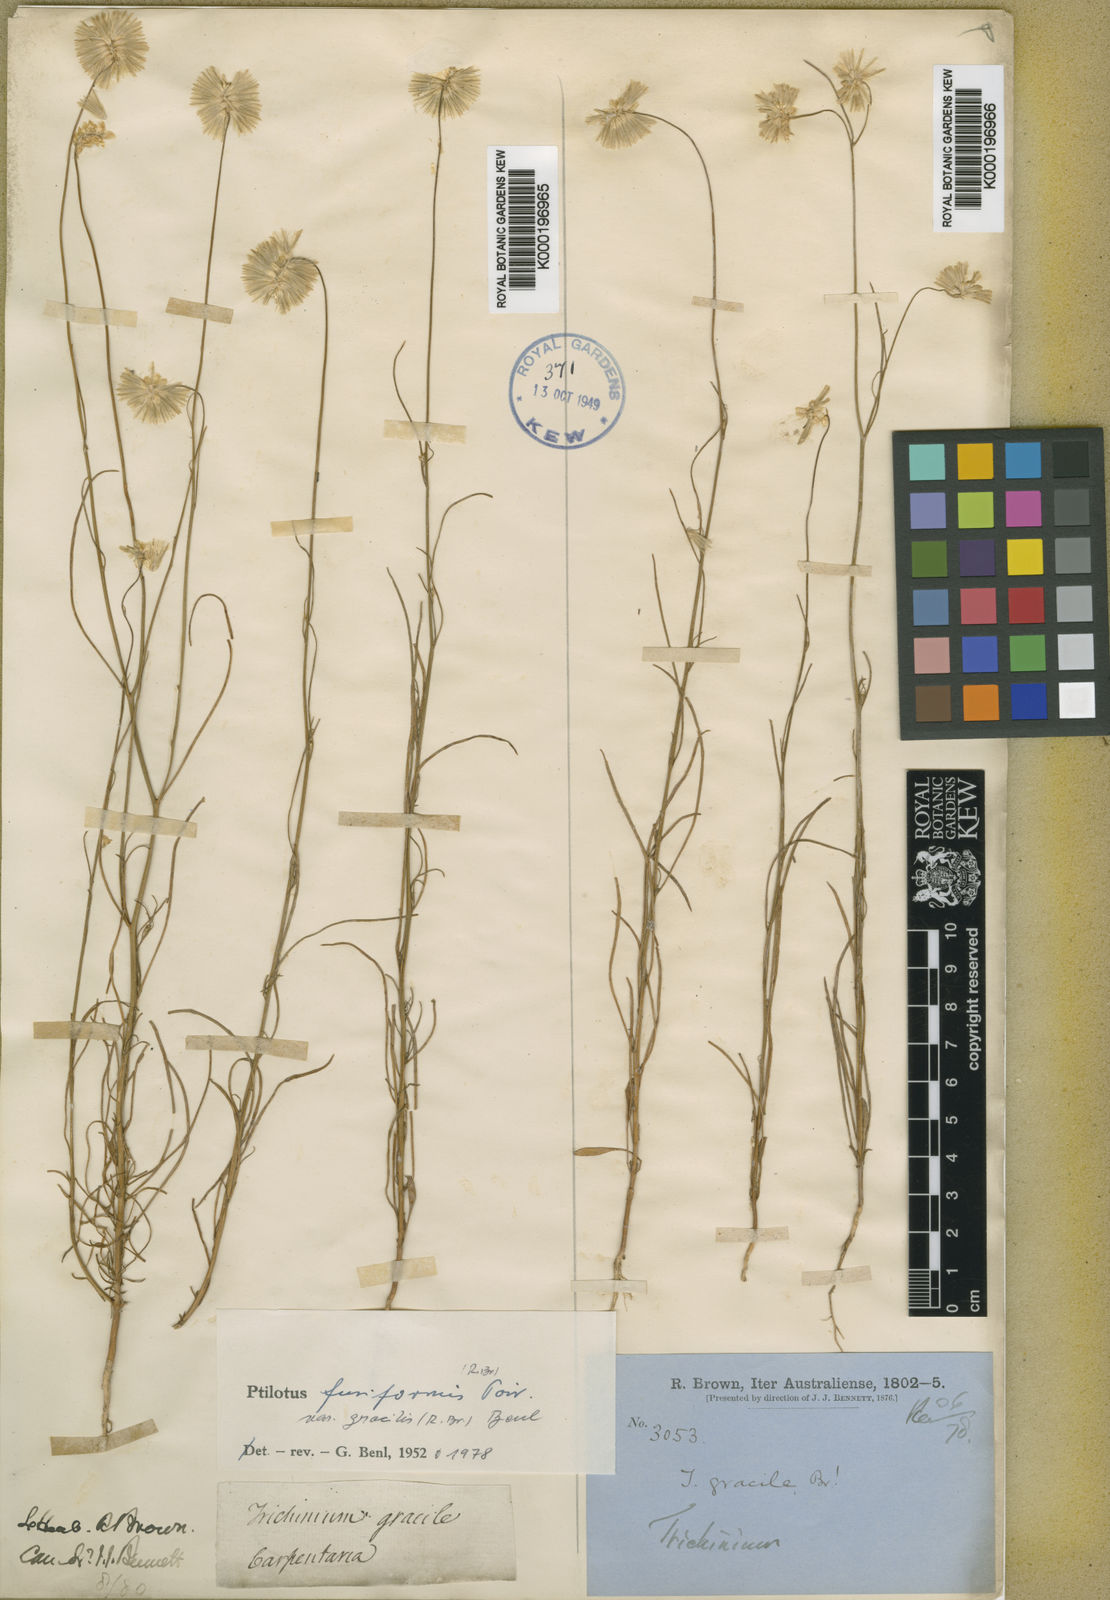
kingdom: Plantae
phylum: Tracheophyta
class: Magnoliopsida
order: Caryophyllales
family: Amaranthaceae
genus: Ptilotus
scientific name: Ptilotus fusiformis
